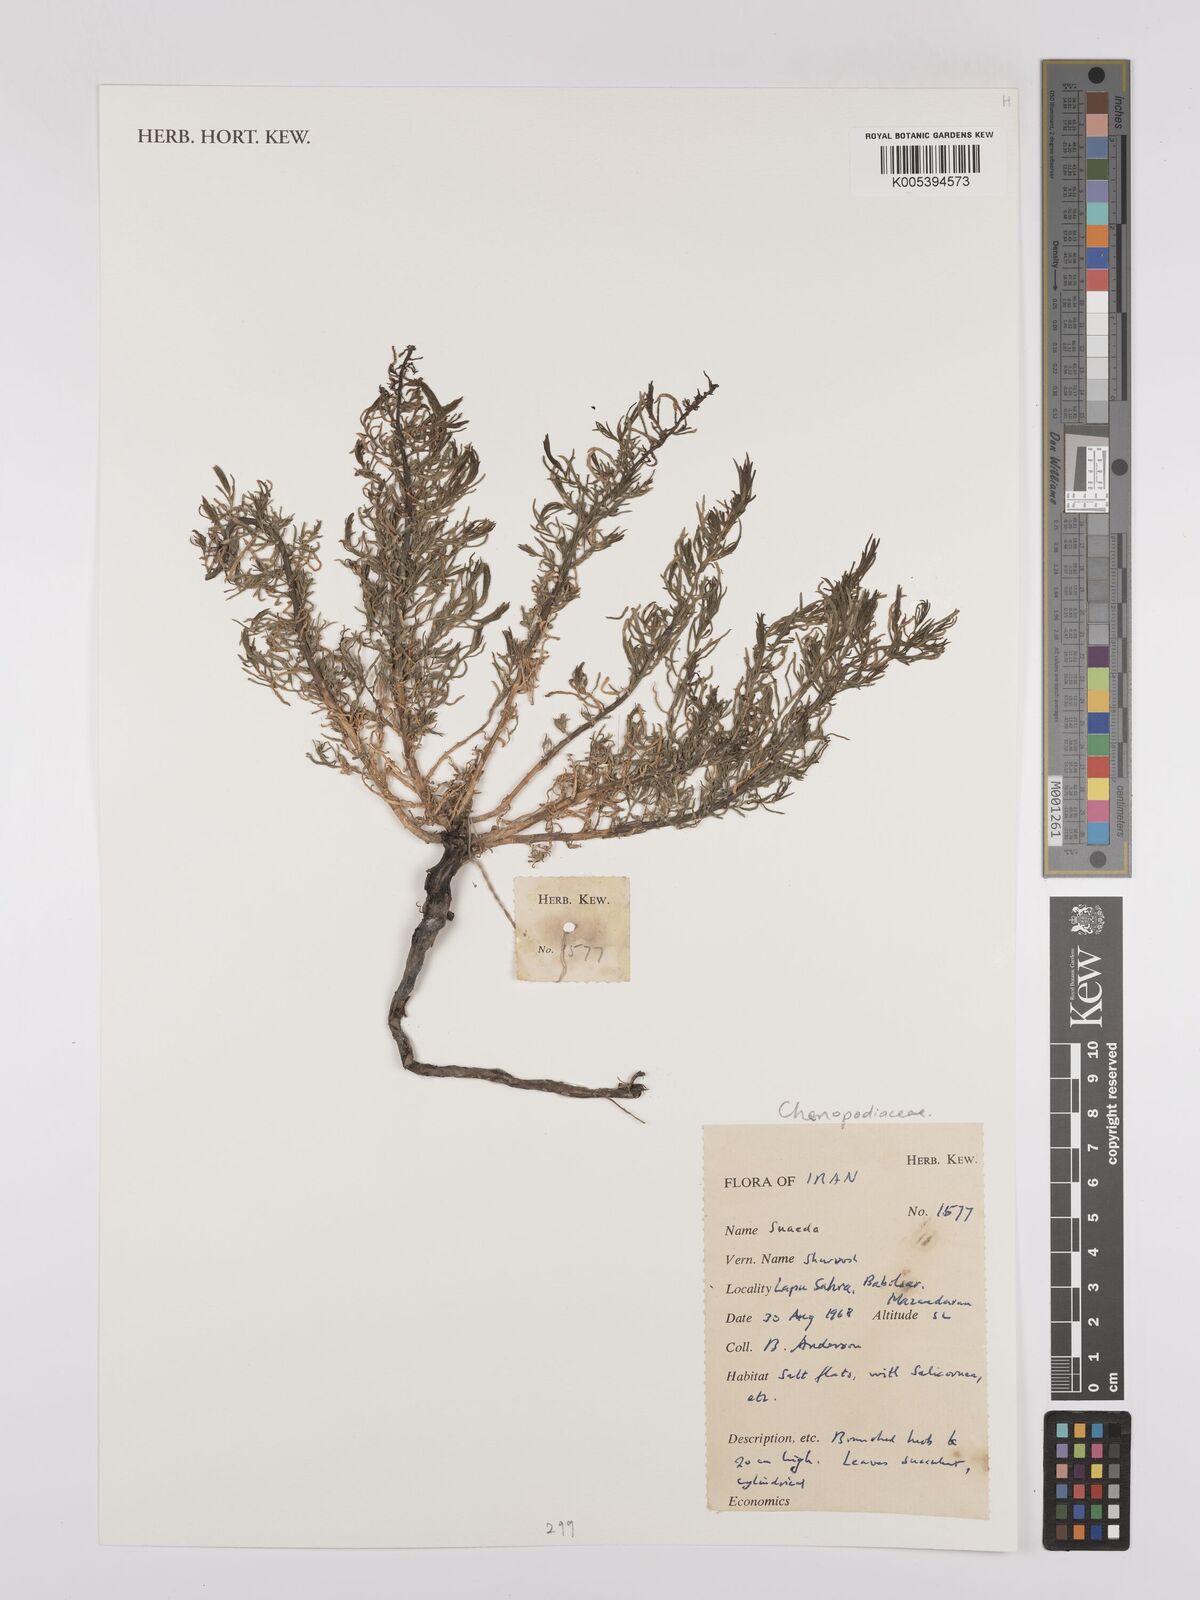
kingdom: Plantae
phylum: Tracheophyta
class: Magnoliopsida
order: Caryophyllales
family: Amaranthaceae
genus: Suaeda
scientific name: Suaeda
